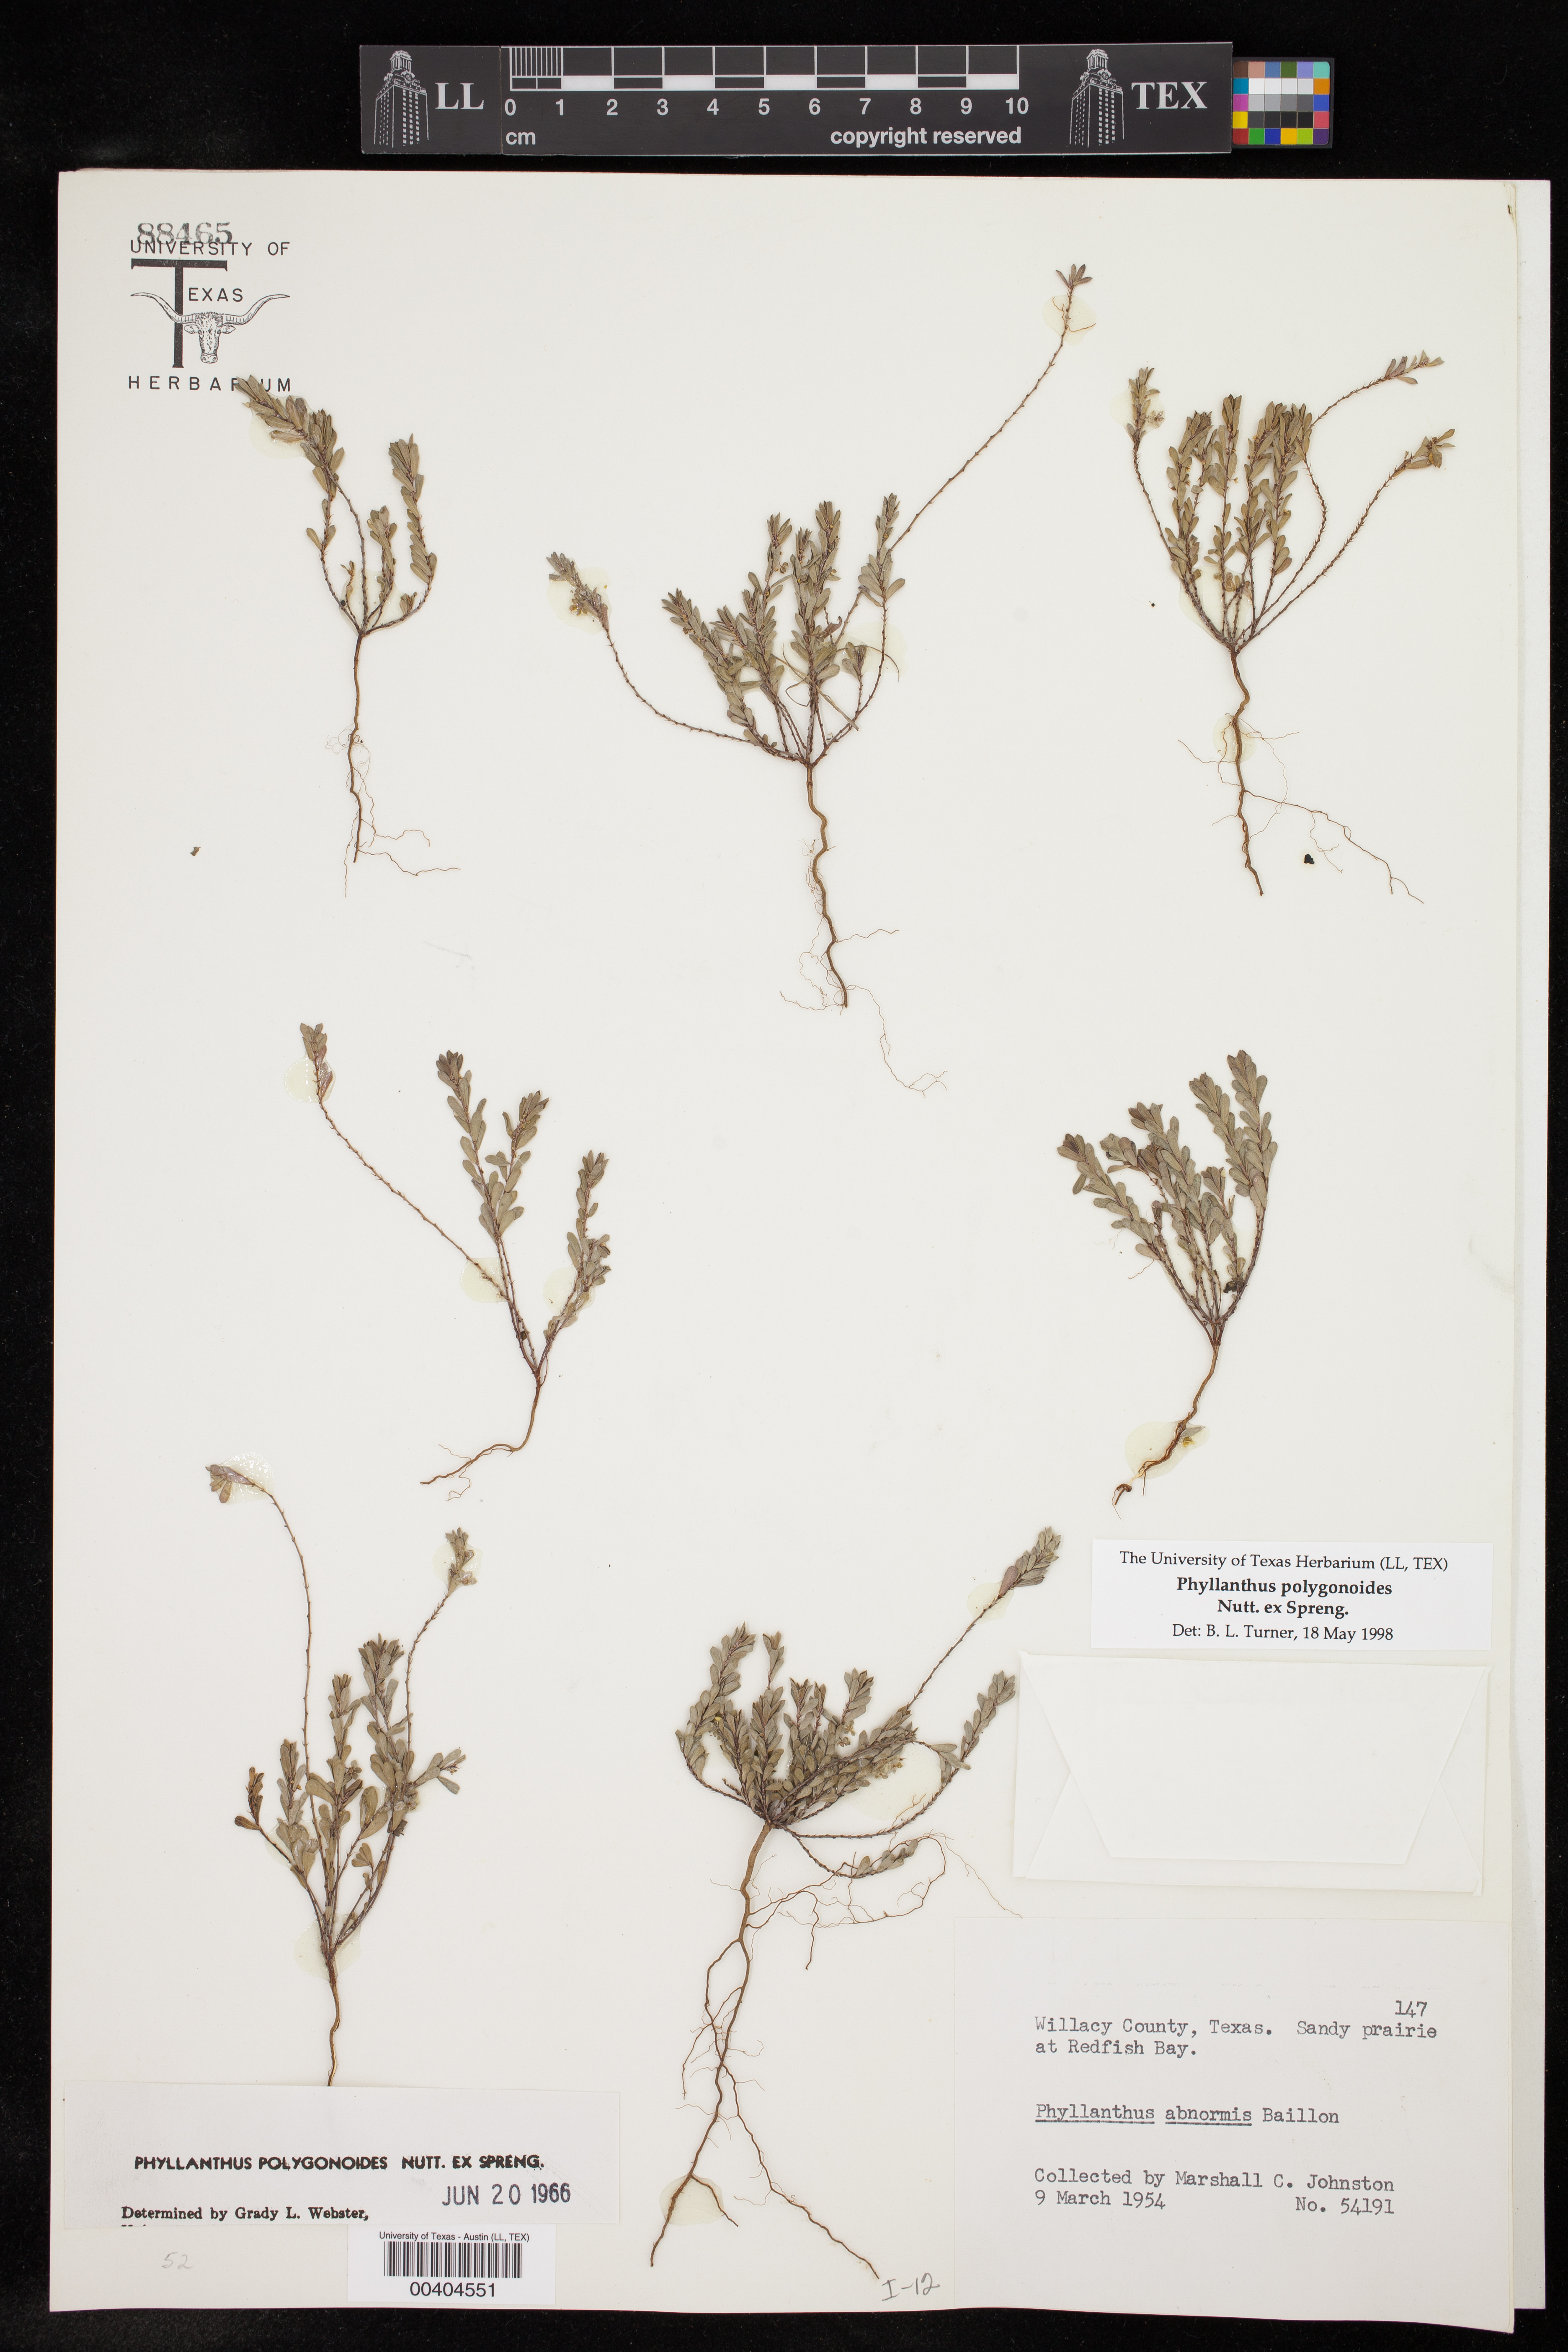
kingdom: Plantae
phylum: Tracheophyta
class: Magnoliopsida
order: Malpighiales
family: Phyllanthaceae
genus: Phyllanthus
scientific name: Phyllanthus polygonoides
